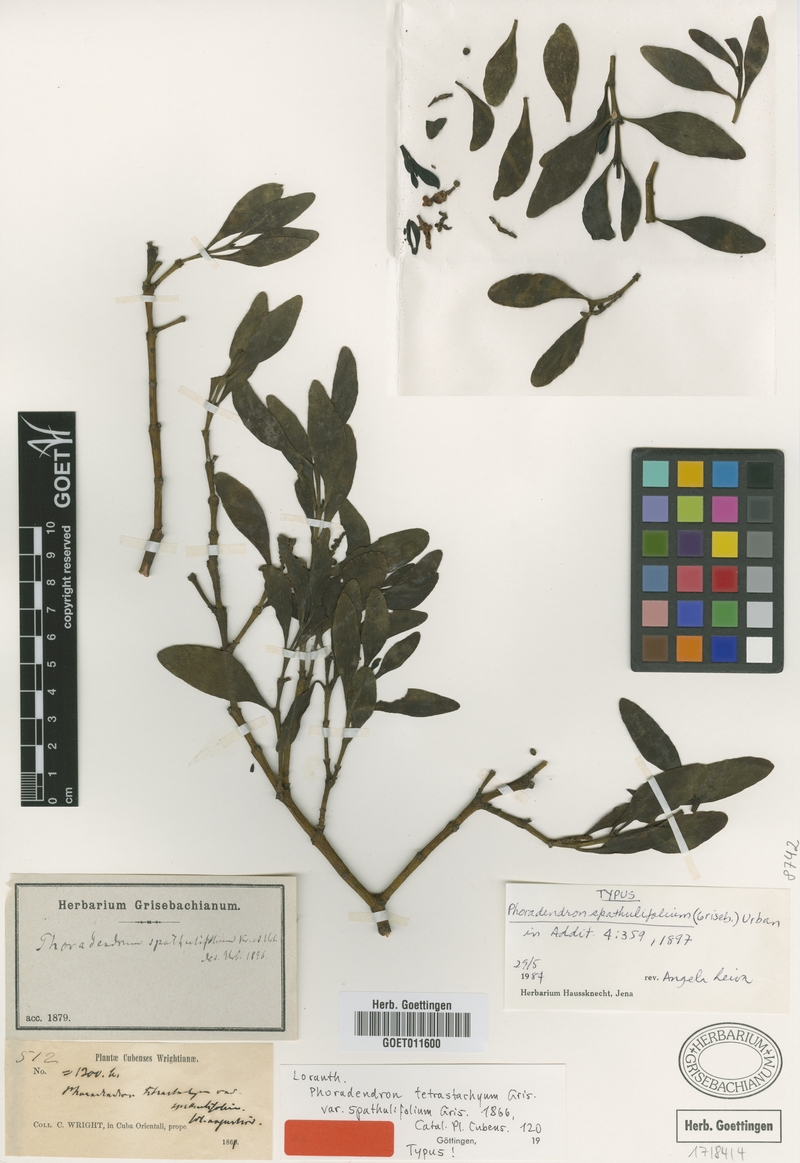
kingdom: Plantae
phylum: Tracheophyta
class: Magnoliopsida
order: Santalales
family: Viscaceae
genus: Phoradendron
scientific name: Phoradendron rubrum
